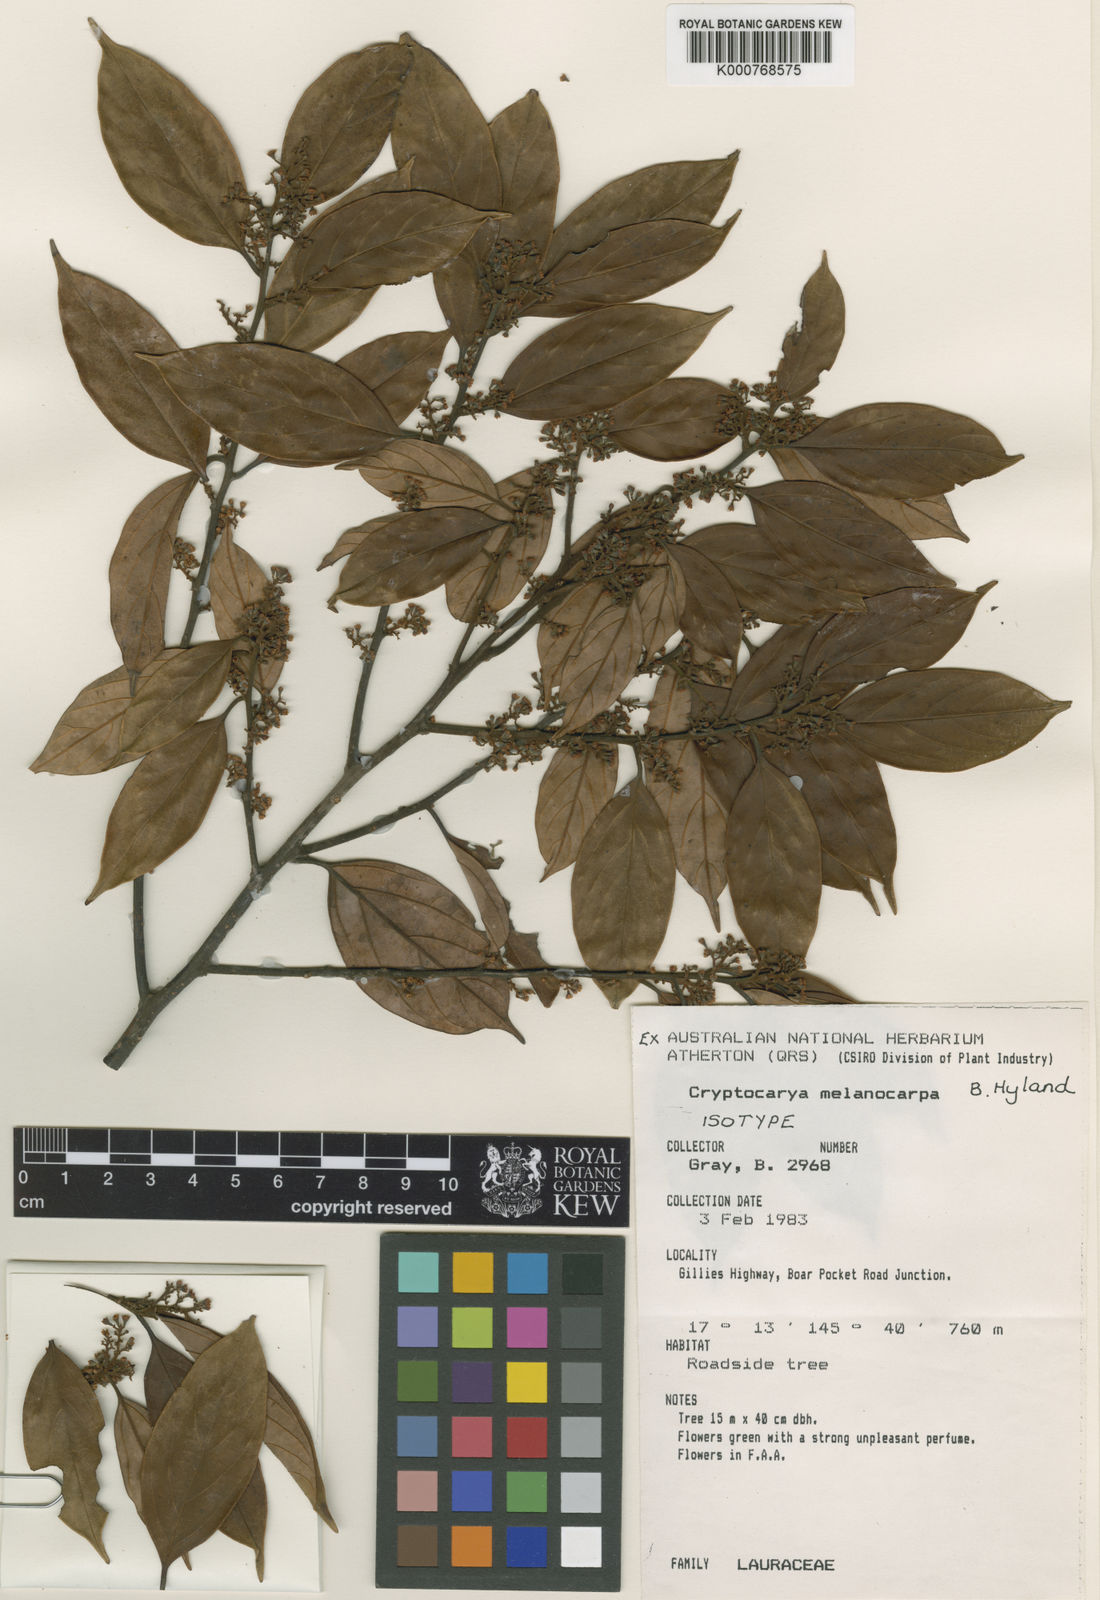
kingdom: Plantae
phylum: Tracheophyta
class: Magnoliopsida
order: Laurales
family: Lauraceae
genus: Cryptocarya
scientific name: Cryptocarya melanocarpa
